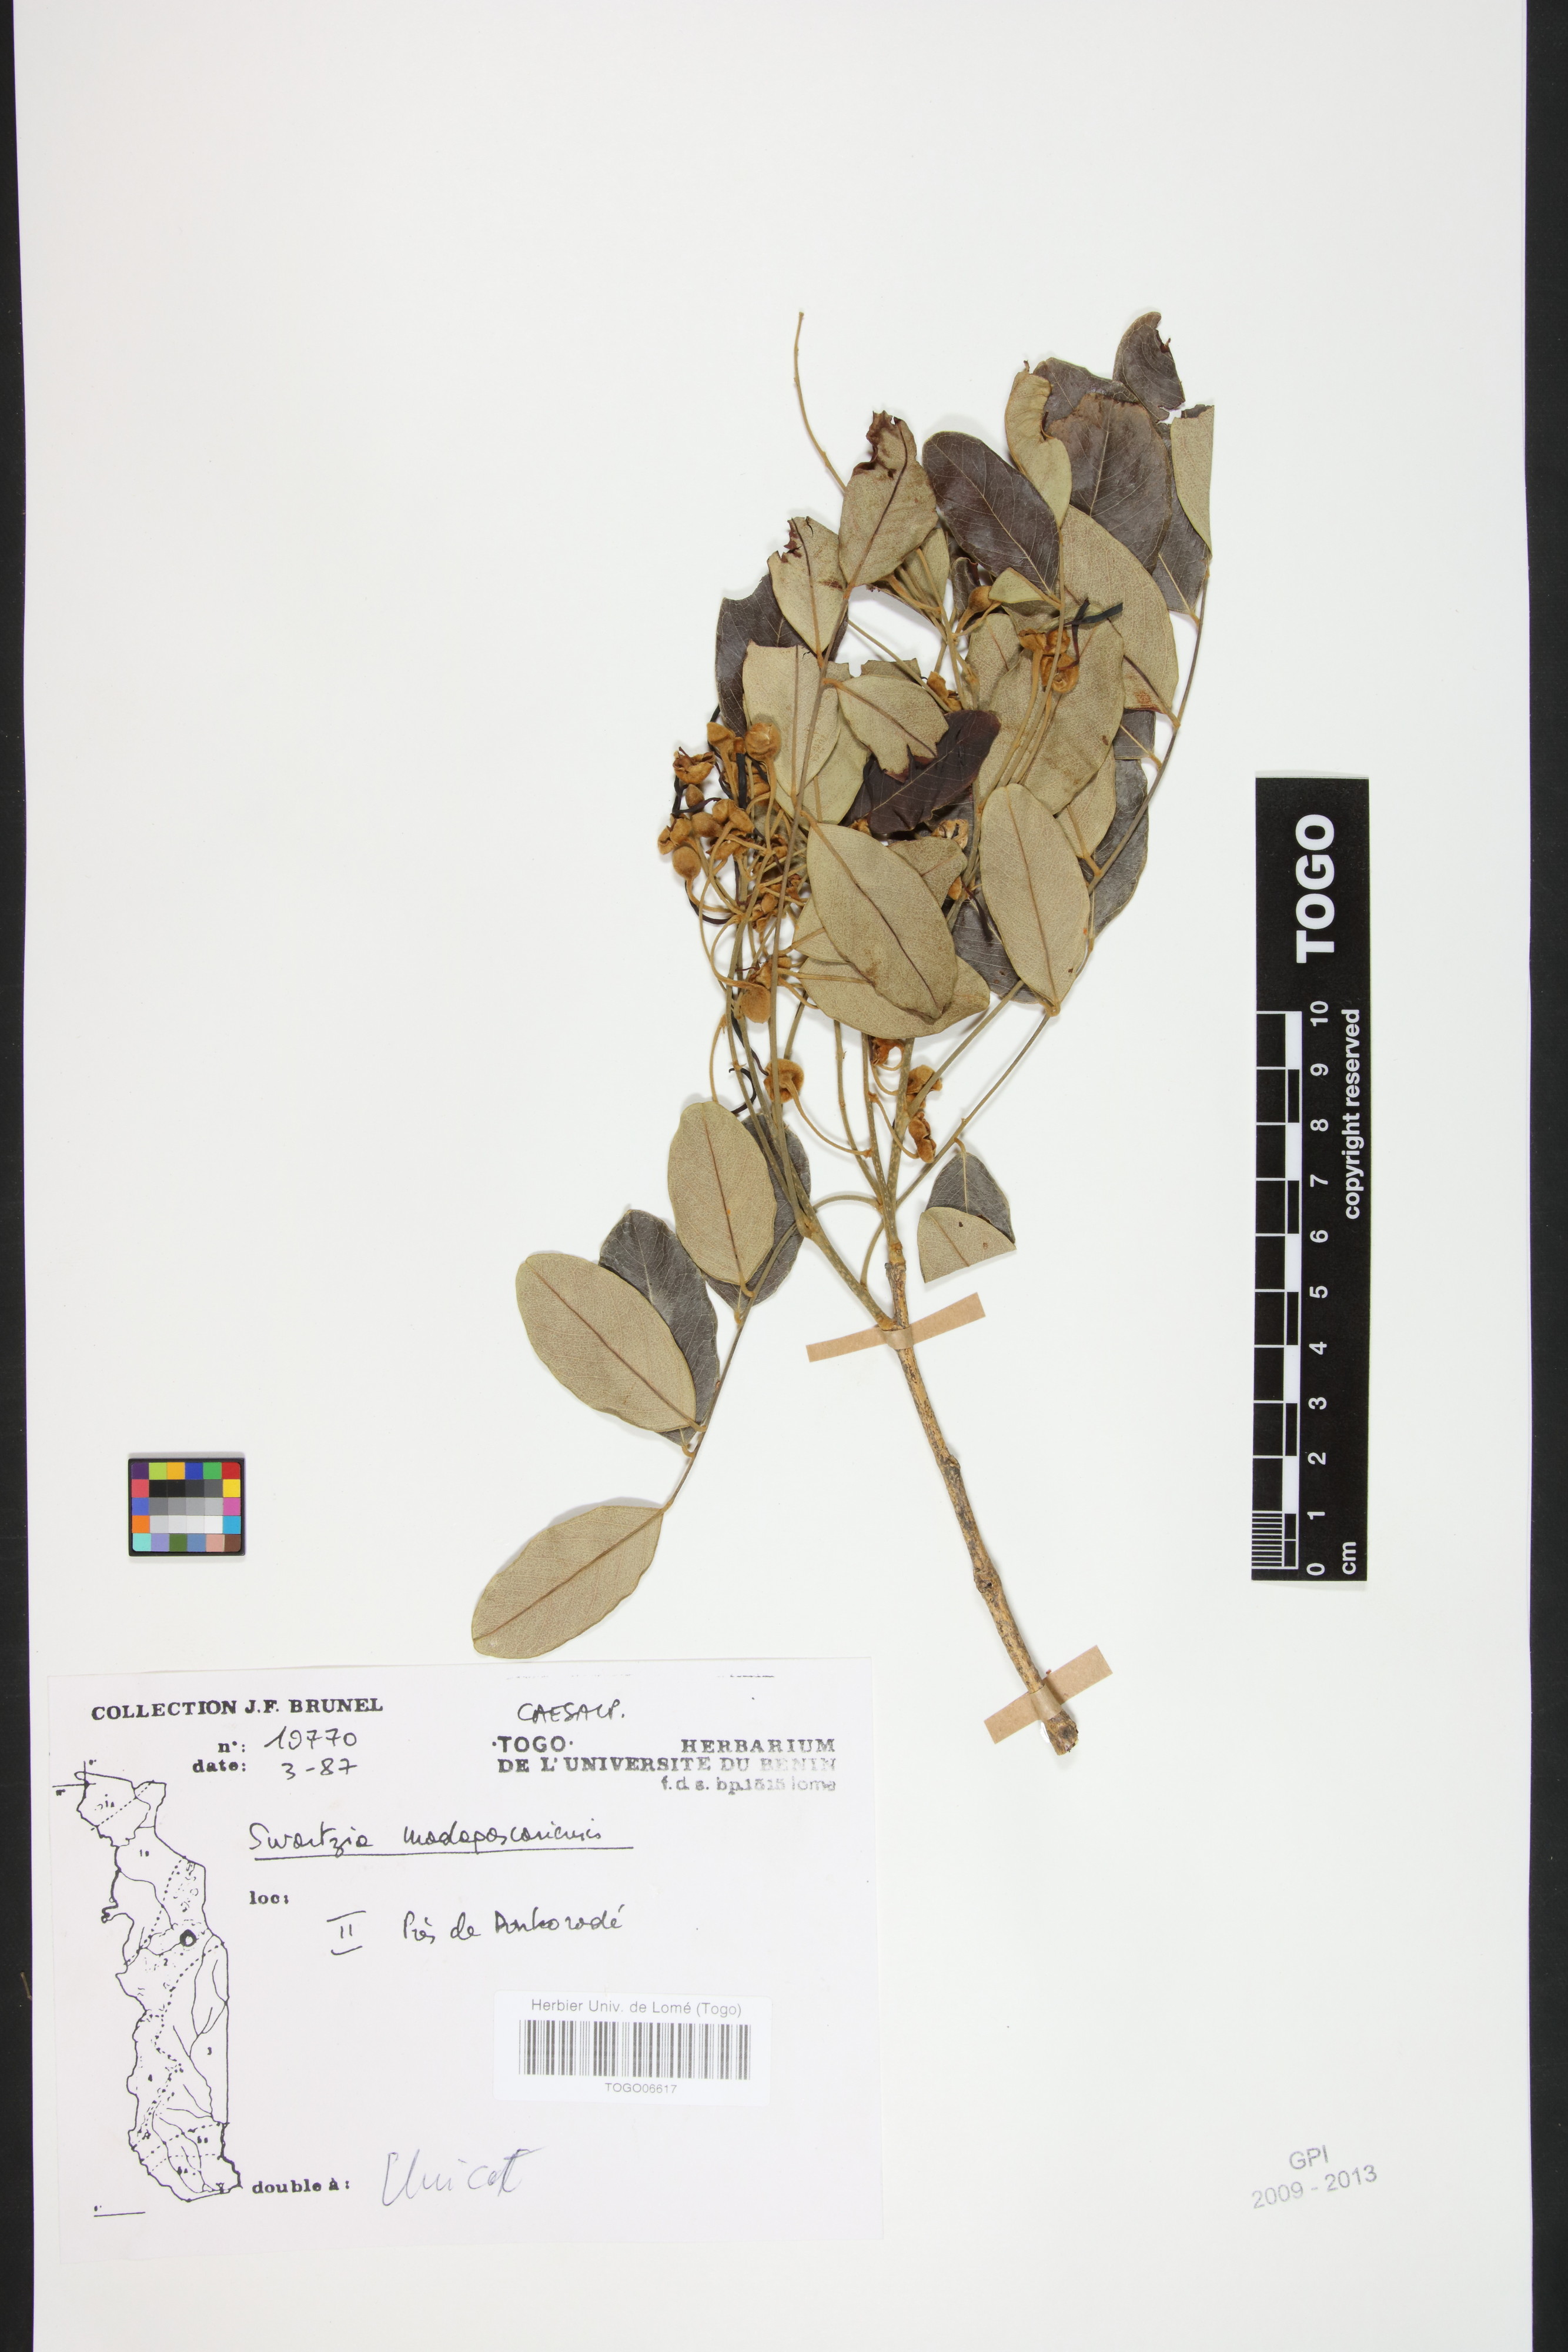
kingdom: Plantae
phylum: Tracheophyta
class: Magnoliopsida
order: Fabales
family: Fabaceae
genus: Bobgunnia
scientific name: Bobgunnia madagascariensis
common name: Snake bean plant
